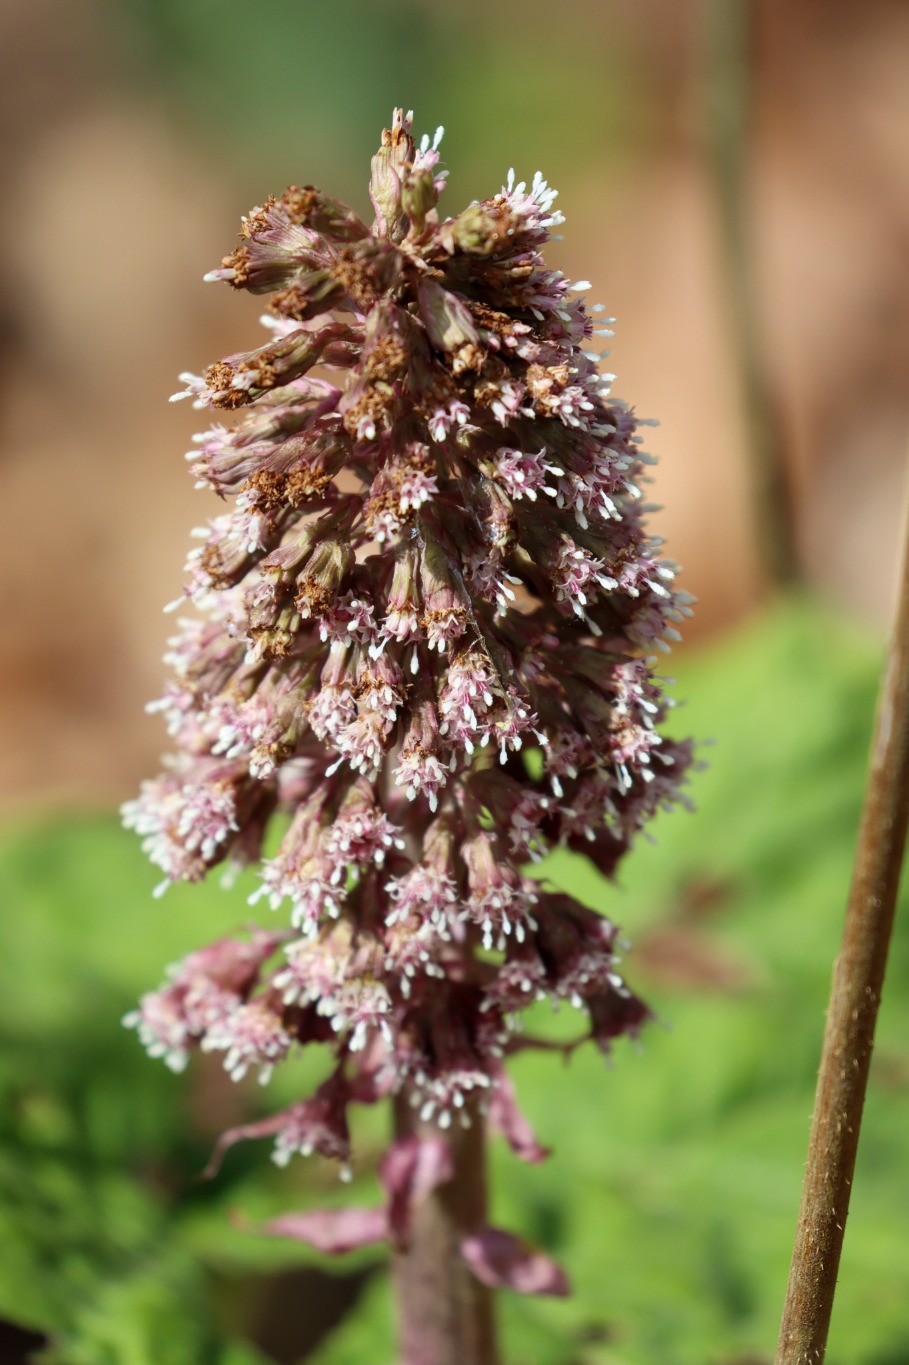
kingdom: Plantae
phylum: Tracheophyta
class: Magnoliopsida
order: Asterales
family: Asteraceae
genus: Petasites
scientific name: Petasites hybridus
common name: Rød hestehov
